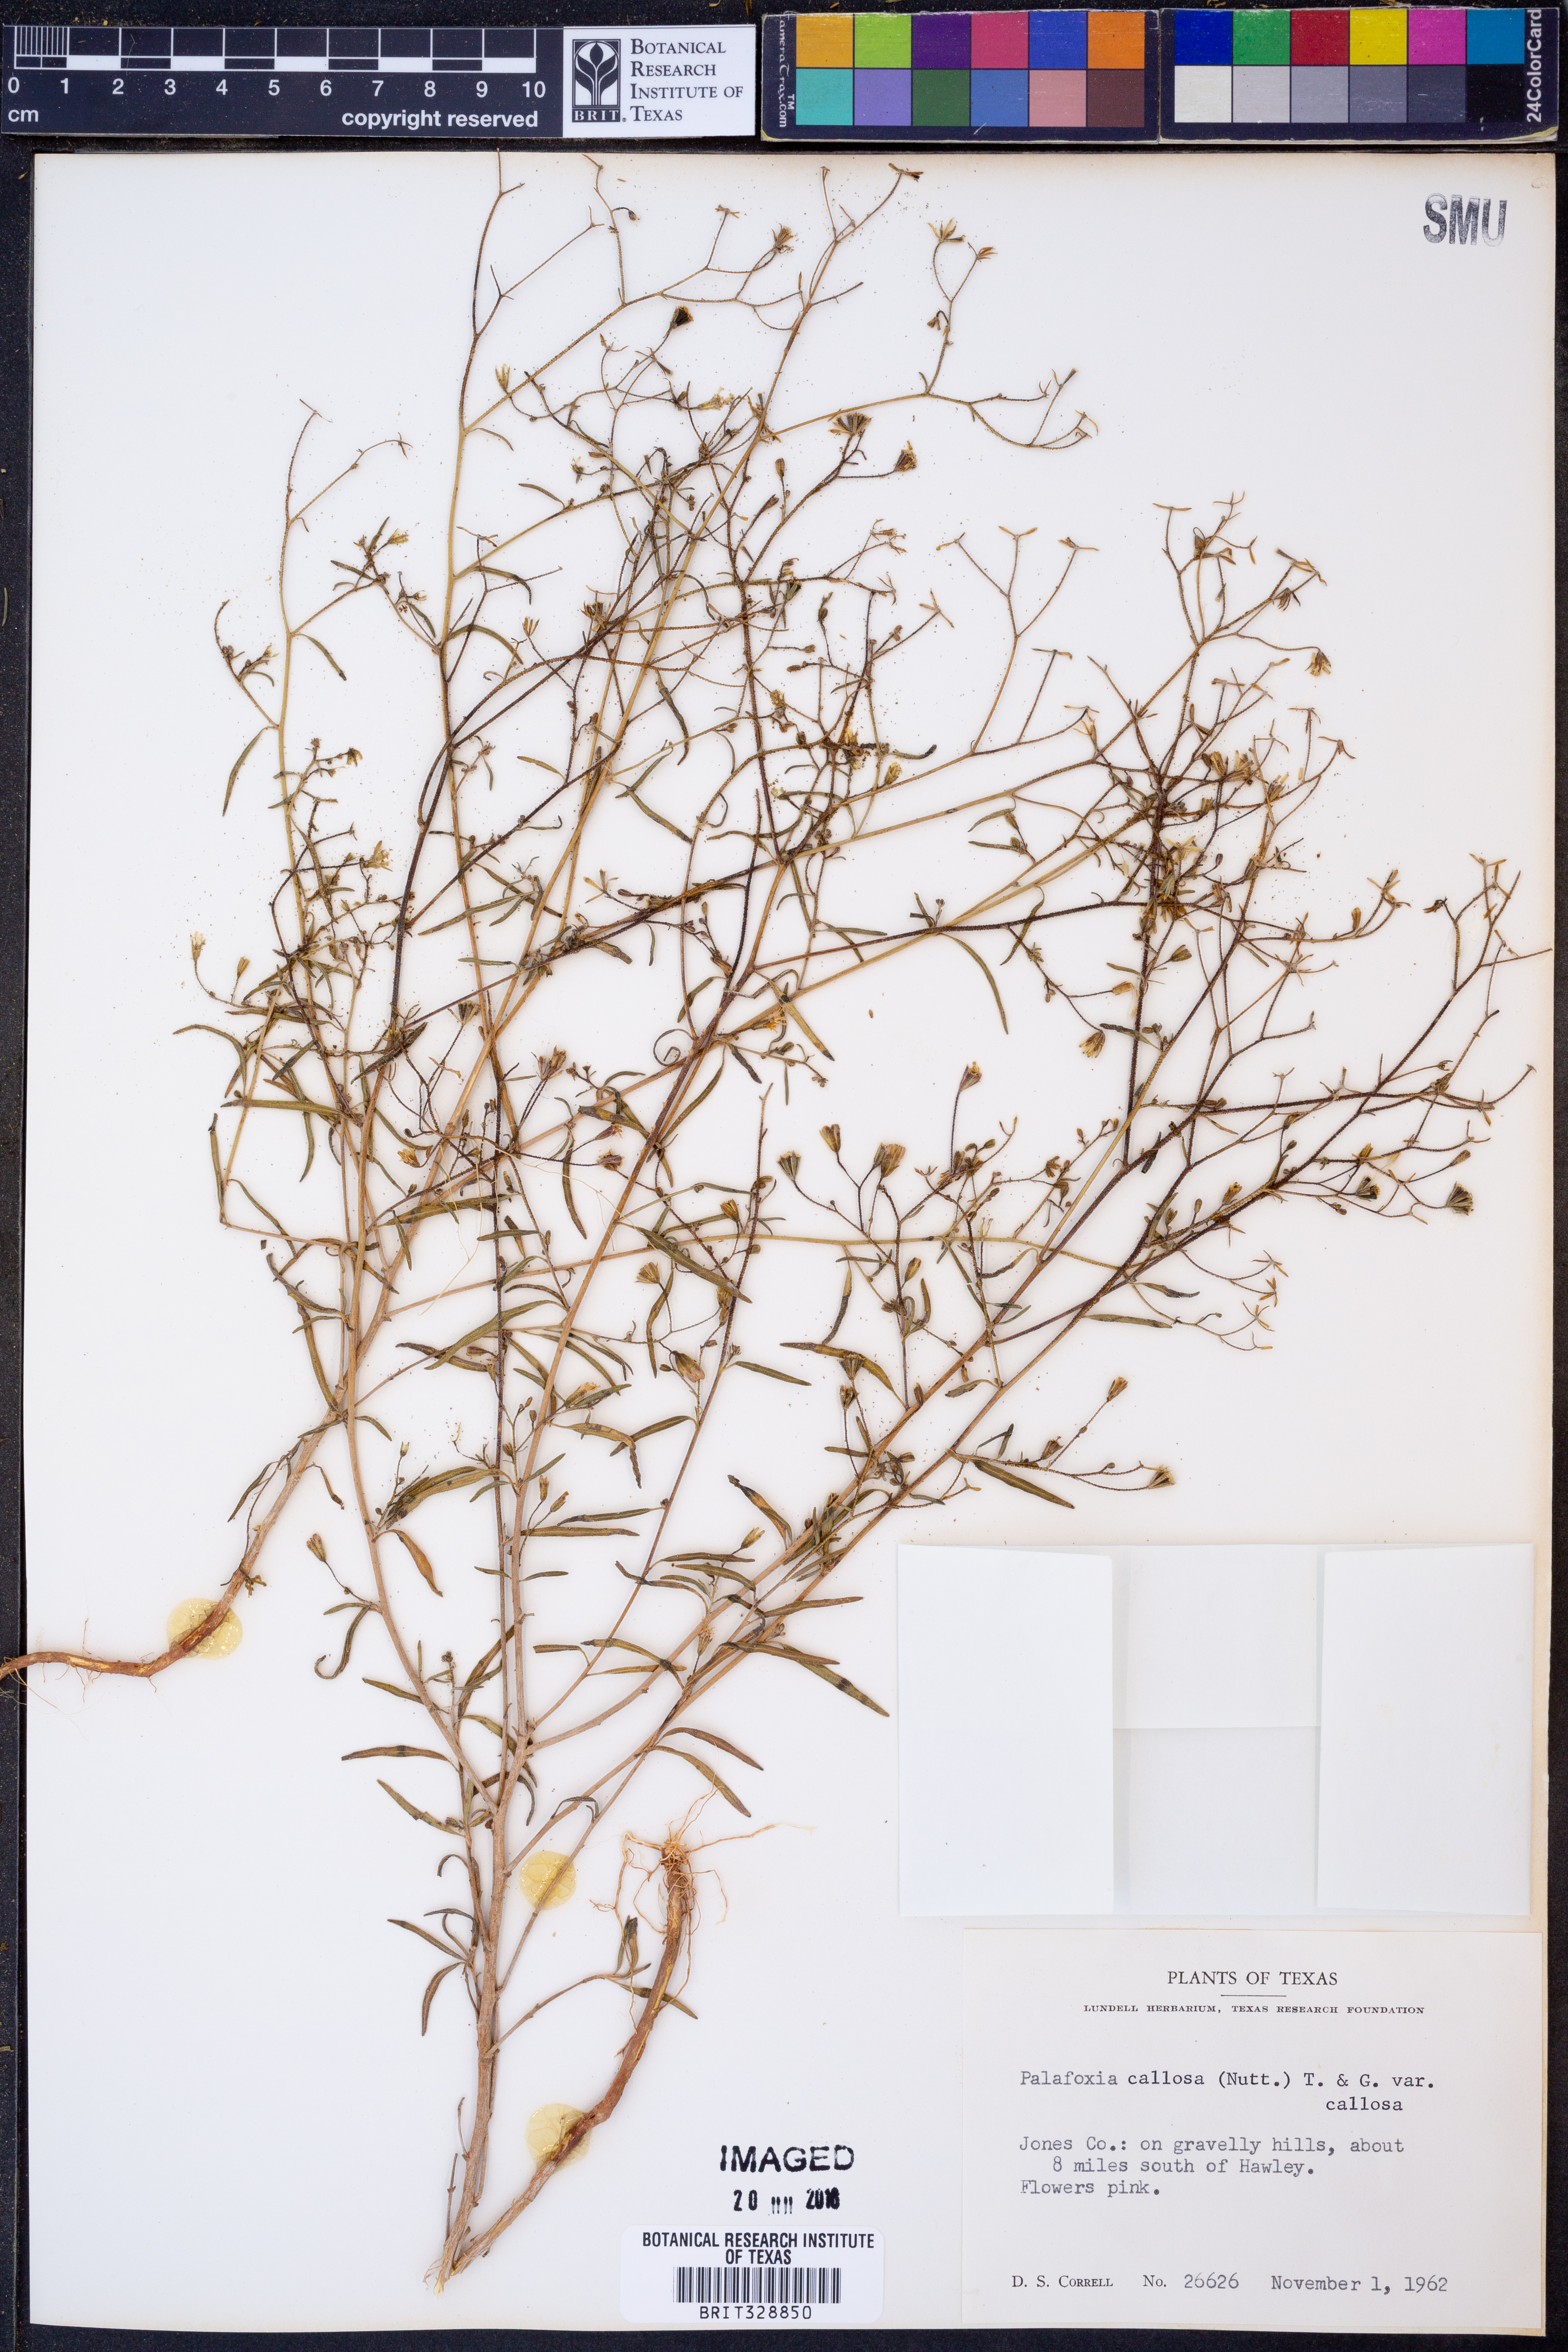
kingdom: Plantae
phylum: Tracheophyta
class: Magnoliopsida
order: Asterales
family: Asteraceae
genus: Palafoxia
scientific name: Palafoxia callosa
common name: Small palafox
